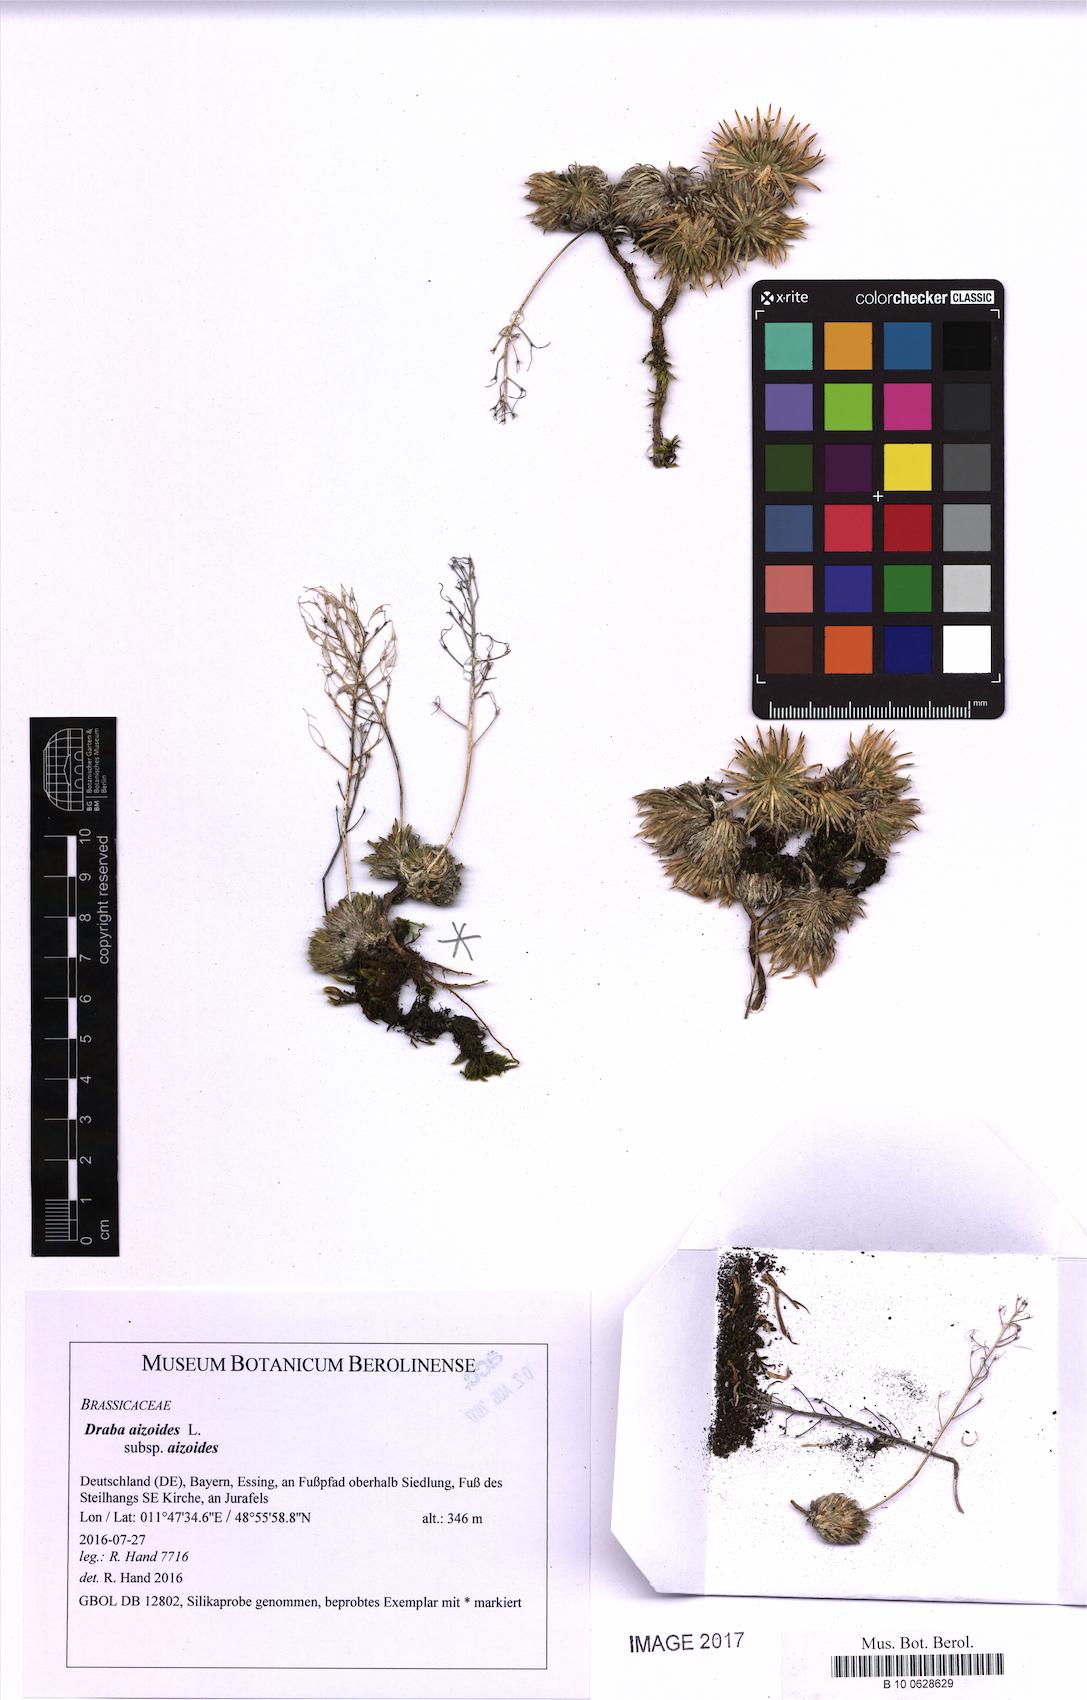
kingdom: Plantae
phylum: Tracheophyta
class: Magnoliopsida
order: Brassicales
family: Brassicaceae
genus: Draba
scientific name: Draba aizoides
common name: Yellow whitlowgrass
